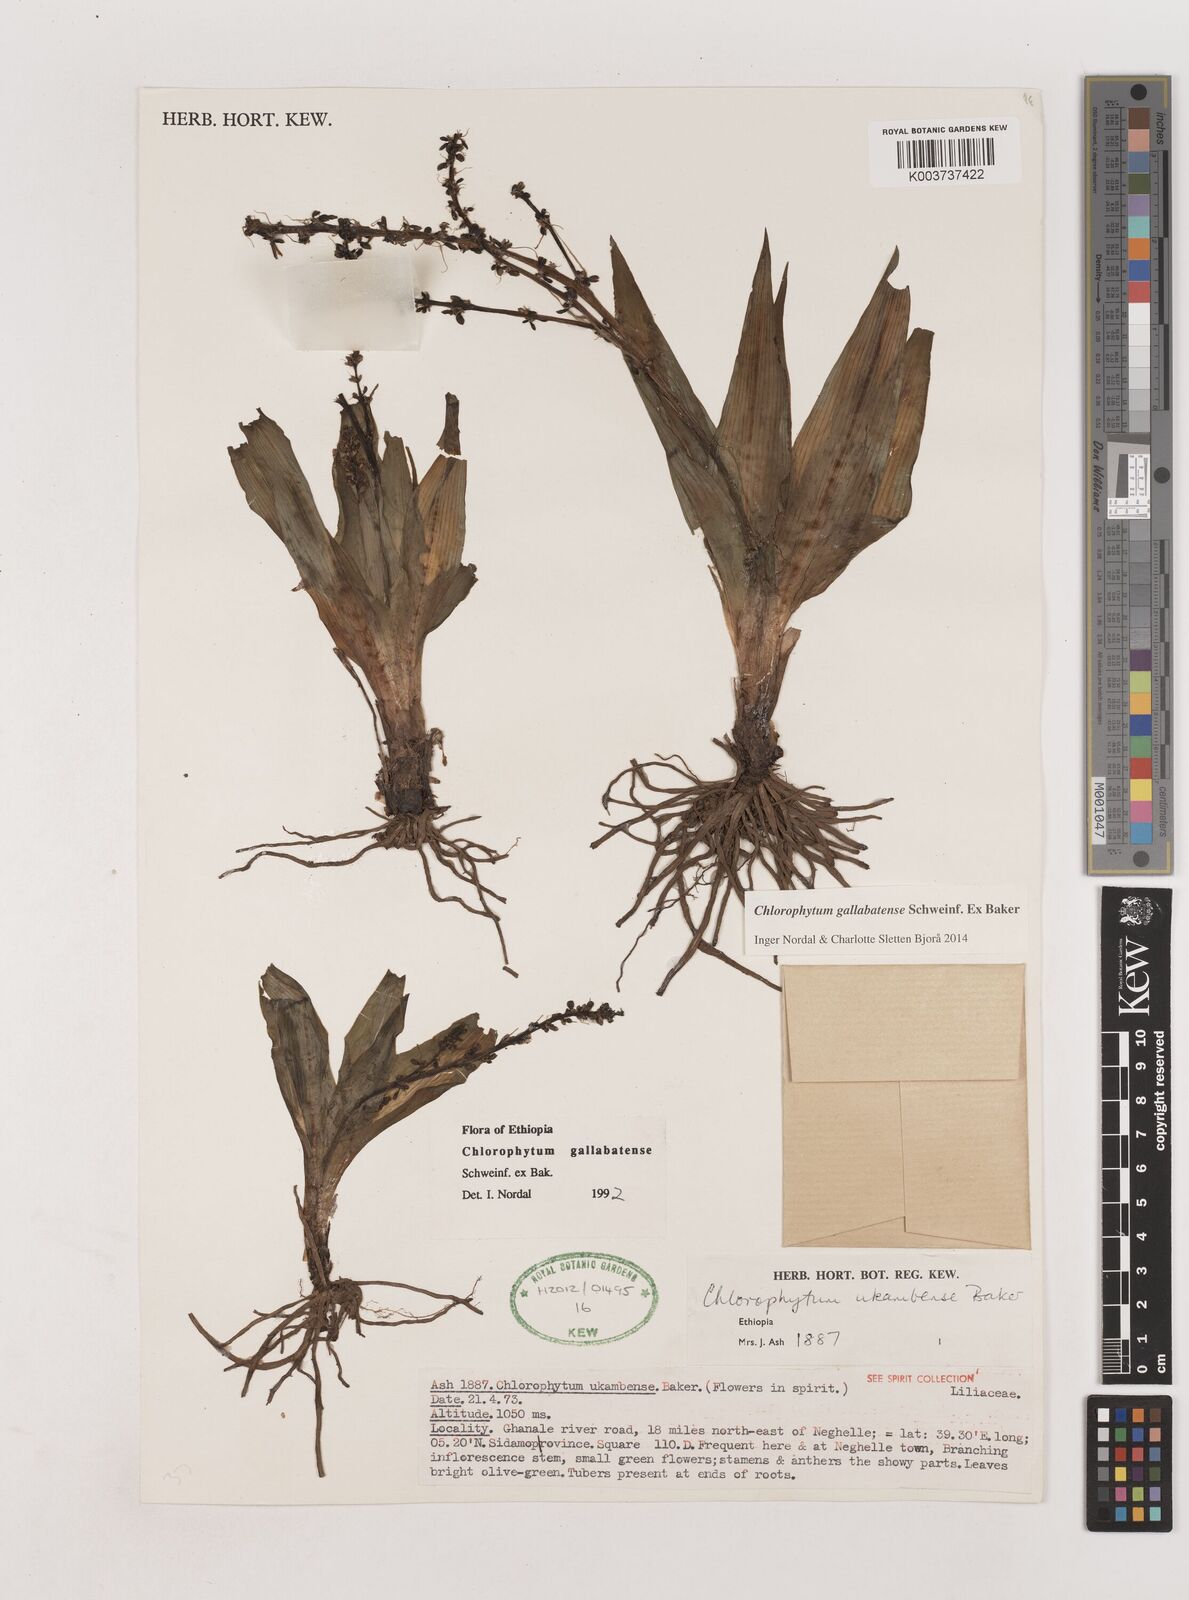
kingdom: Plantae
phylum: Tracheophyta
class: Liliopsida
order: Asparagales
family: Asparagaceae
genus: Chlorophytum
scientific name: Chlorophytum gallabatense
